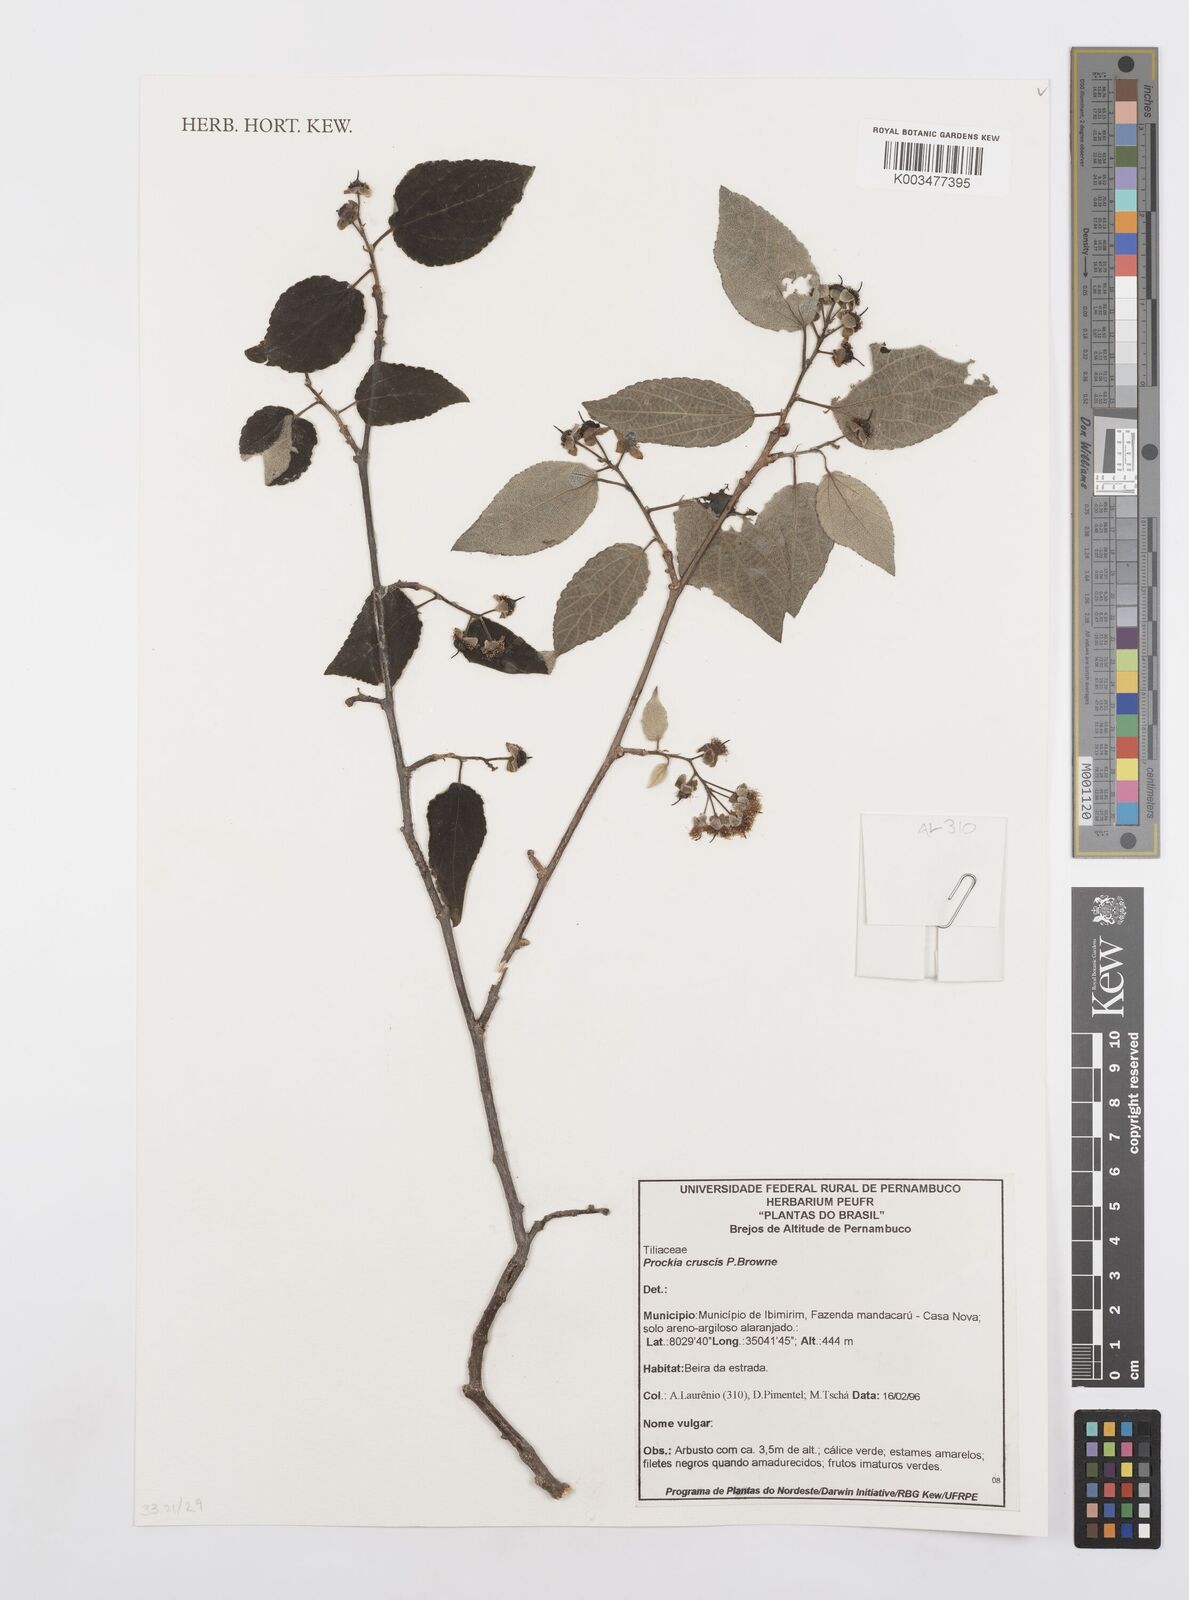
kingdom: Plantae
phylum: Tracheophyta
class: Magnoliopsida
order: Malpighiales
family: Salicaceae
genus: Prockia
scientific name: Prockia crucis
